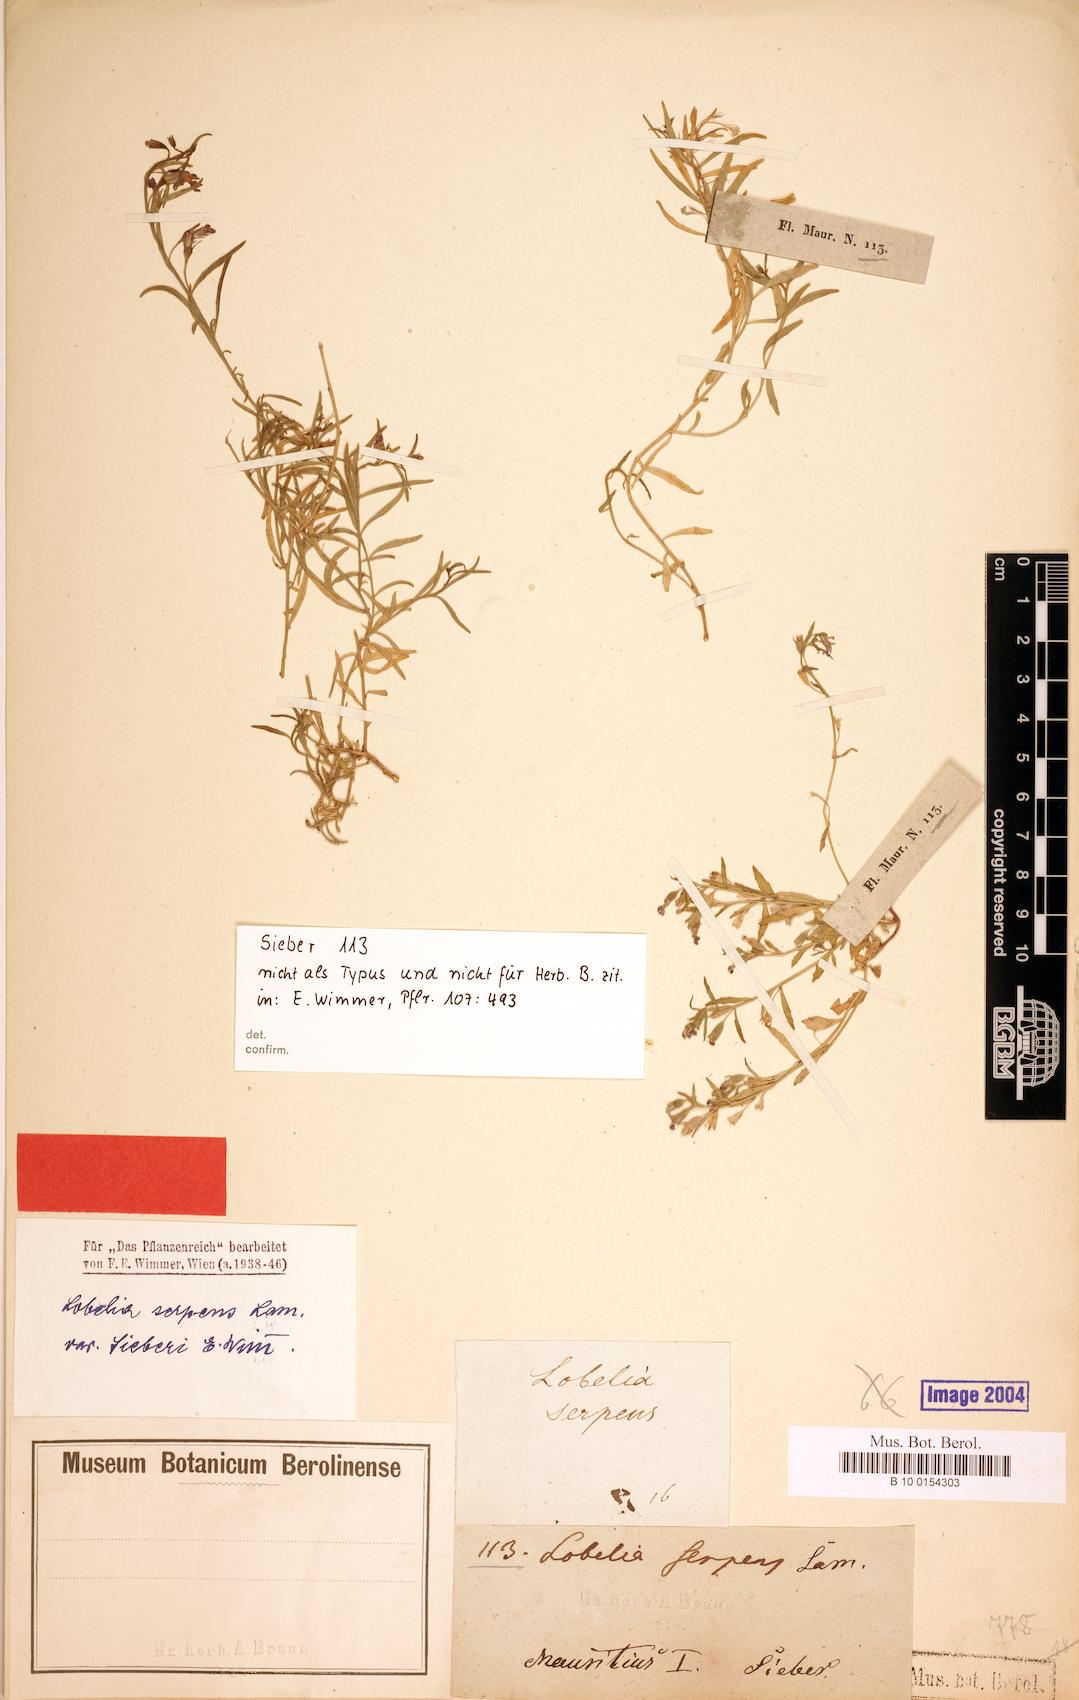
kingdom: Plantae
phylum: Tracheophyta
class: Magnoliopsida
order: Asterales
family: Campanulaceae
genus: Lobelia
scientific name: Lobelia serpens
